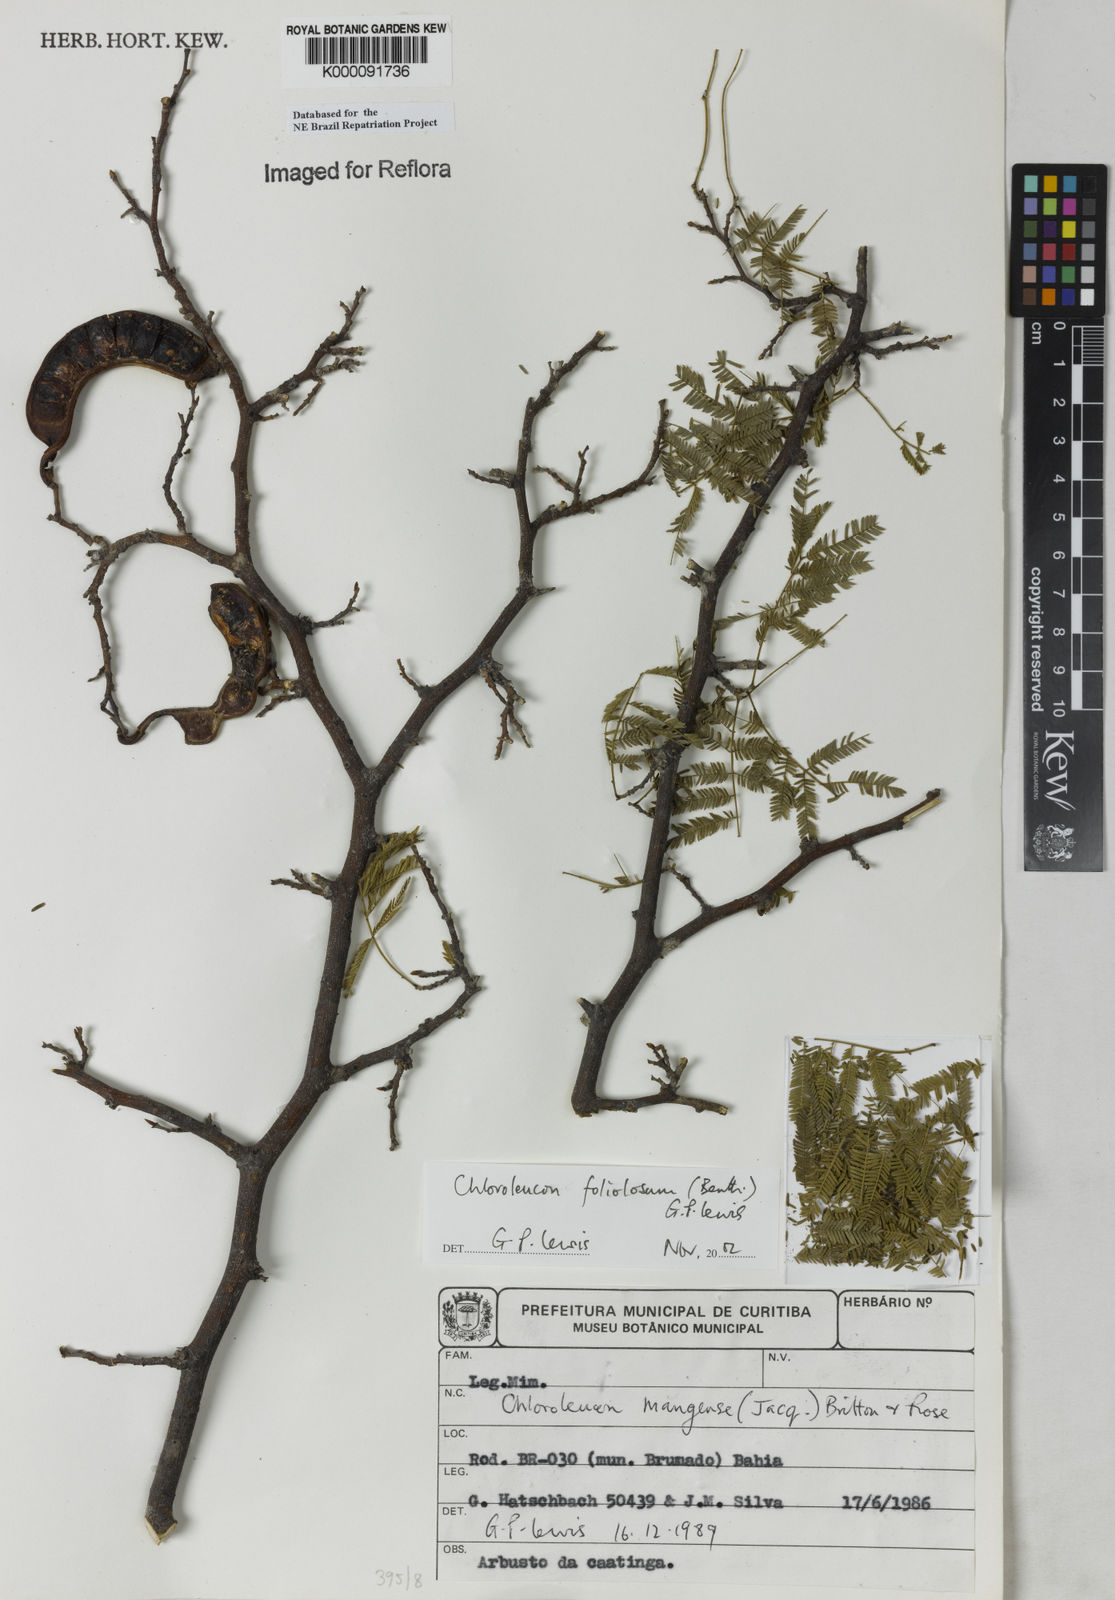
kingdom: Plantae
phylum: Tracheophyta
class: Magnoliopsida
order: Fabales
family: Fabaceae
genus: Chloroleucon
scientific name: Chloroleucon foliolosum
